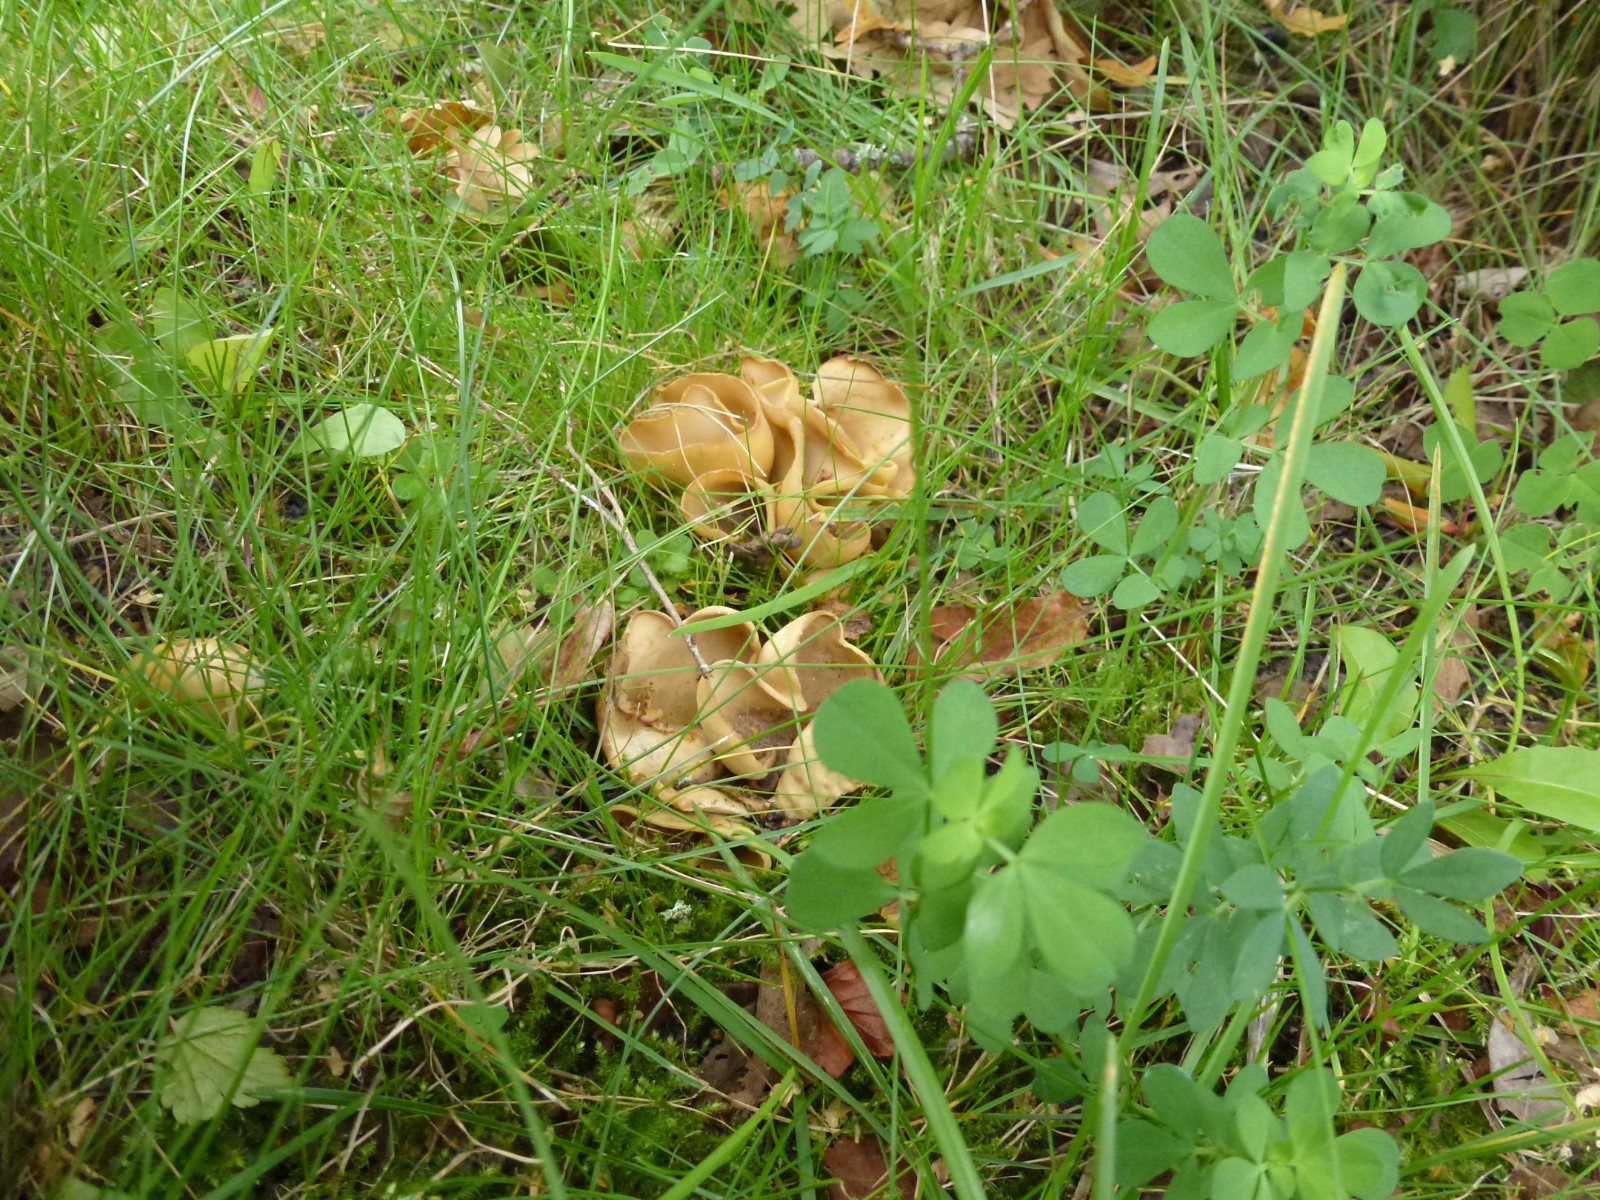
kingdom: Fungi
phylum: Ascomycota
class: Pezizomycetes
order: Pezizales
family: Otideaceae
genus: Otidea
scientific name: Otidea alutacea
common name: læder-ørebæger
